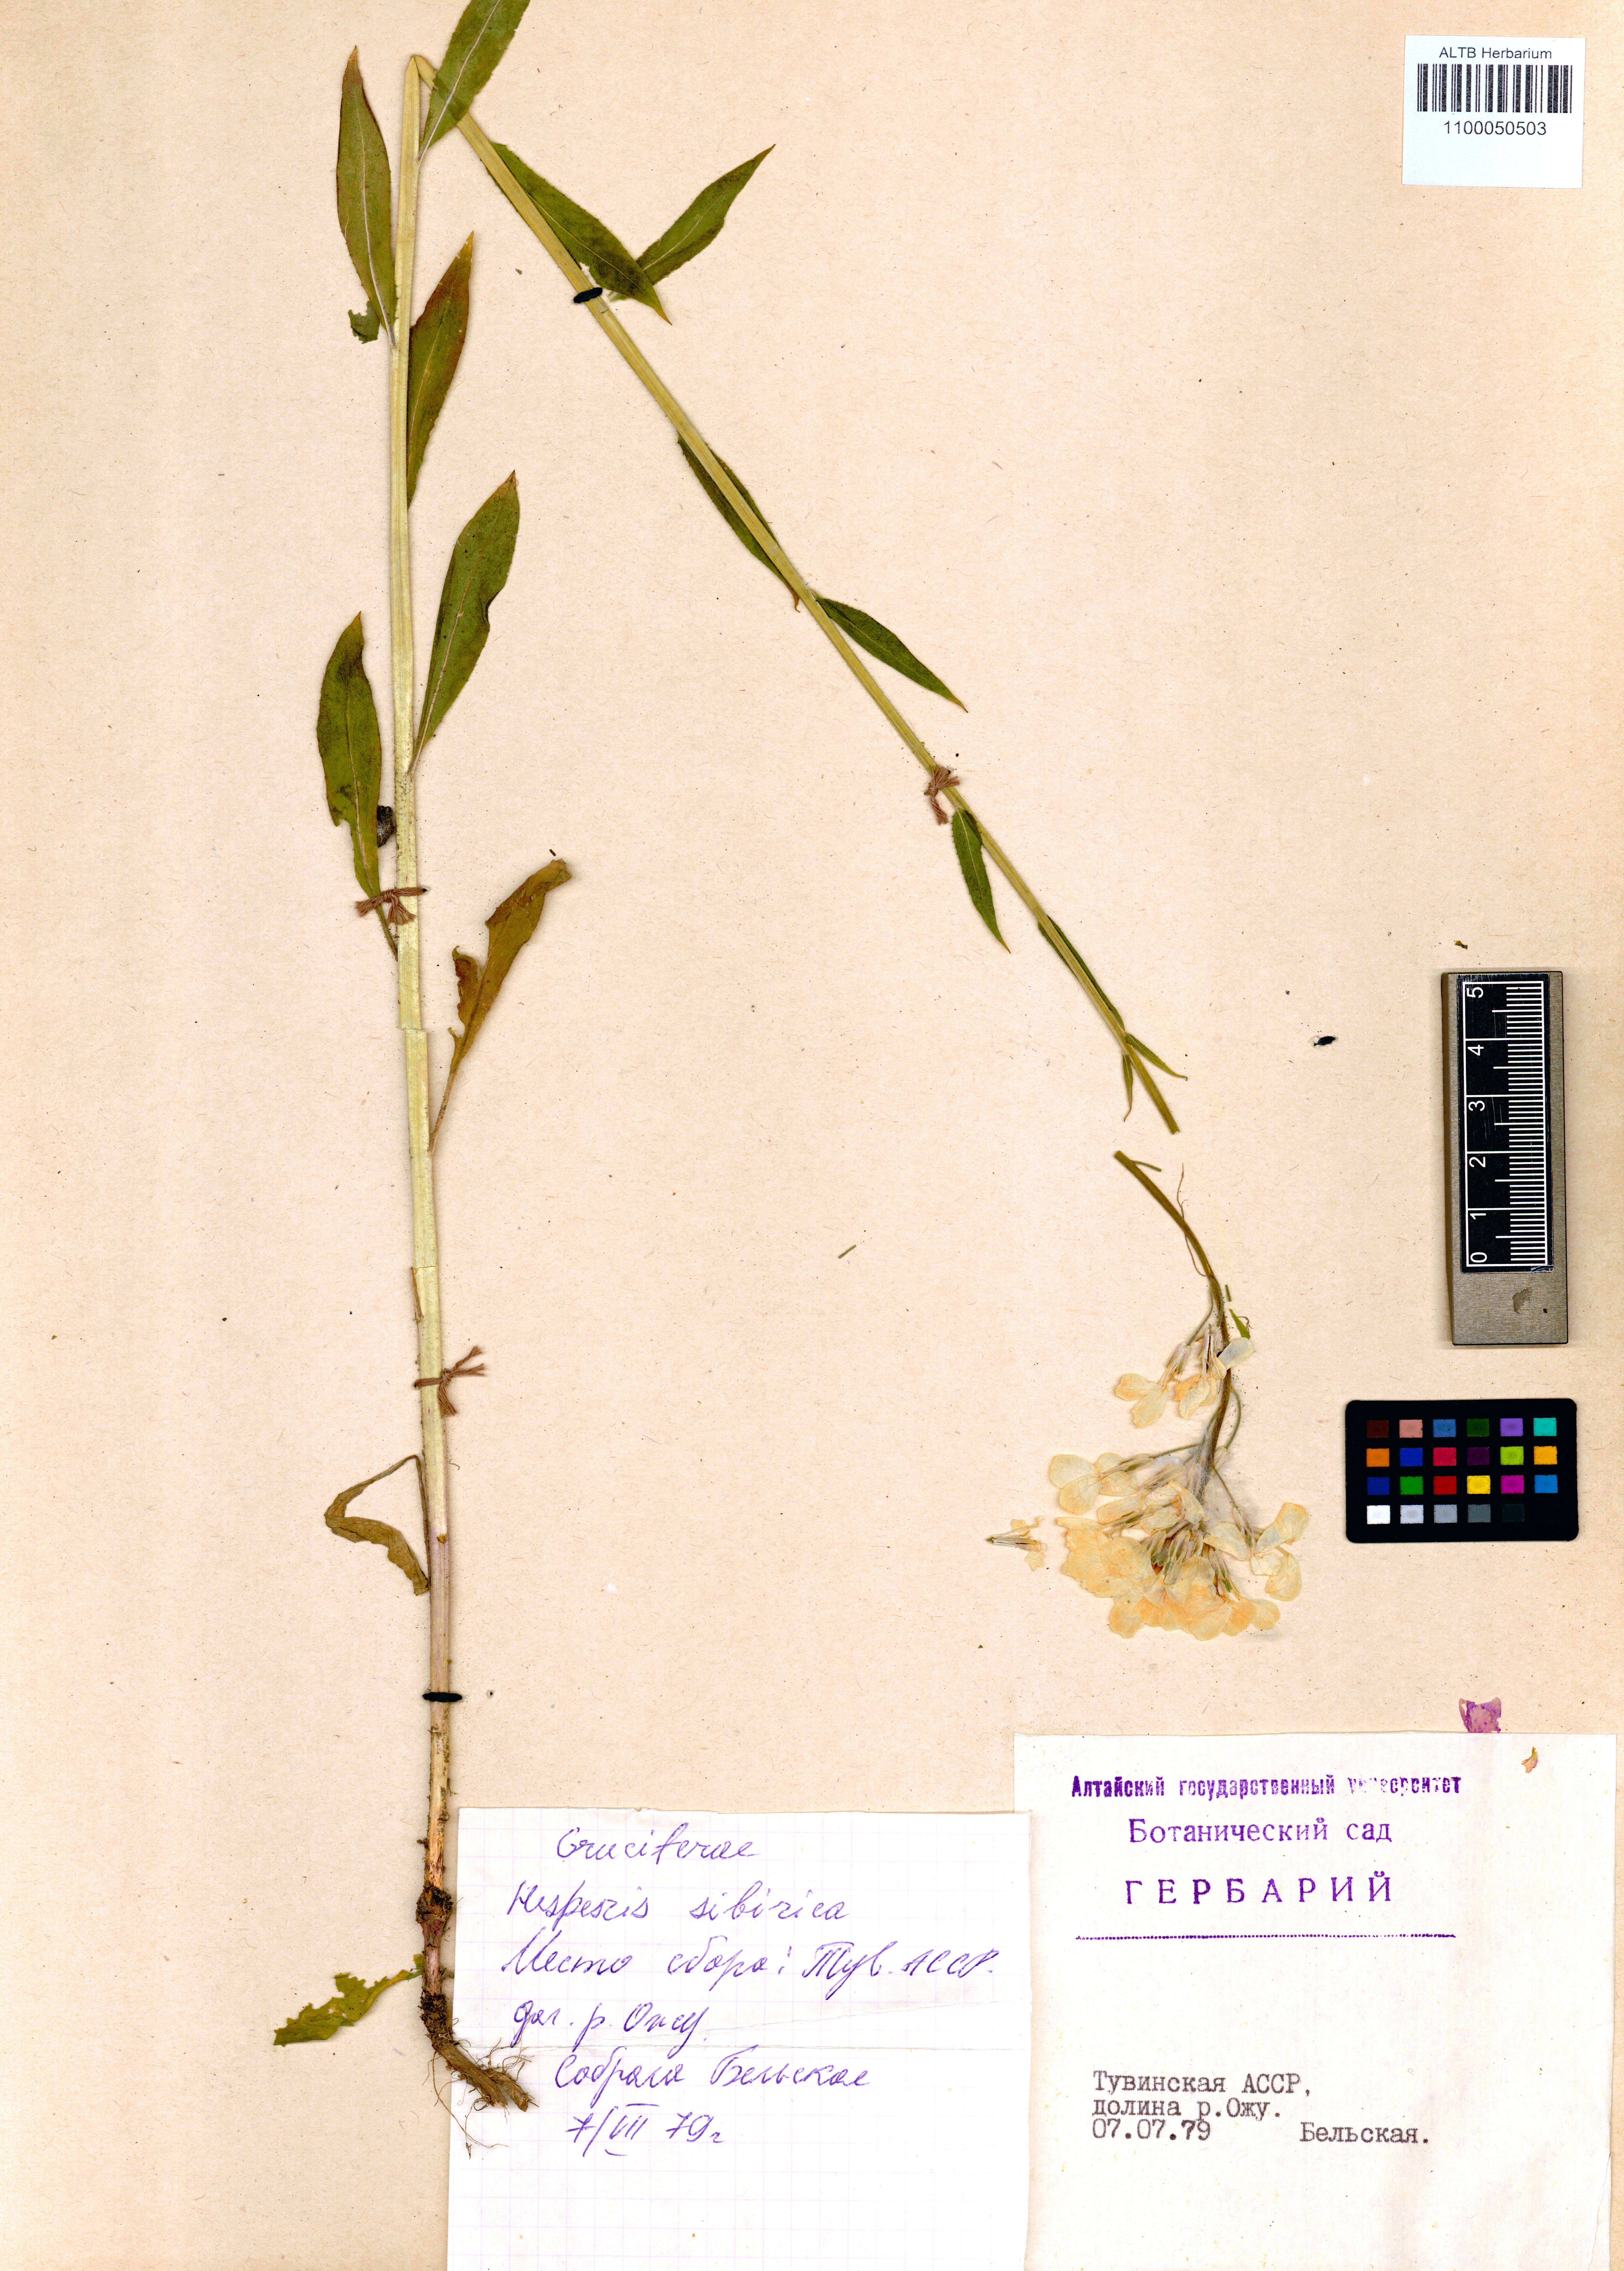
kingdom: Plantae
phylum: Tracheophyta
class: Magnoliopsida
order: Brassicales
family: Brassicaceae
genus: Hesperis
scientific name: Hesperis sibirica
